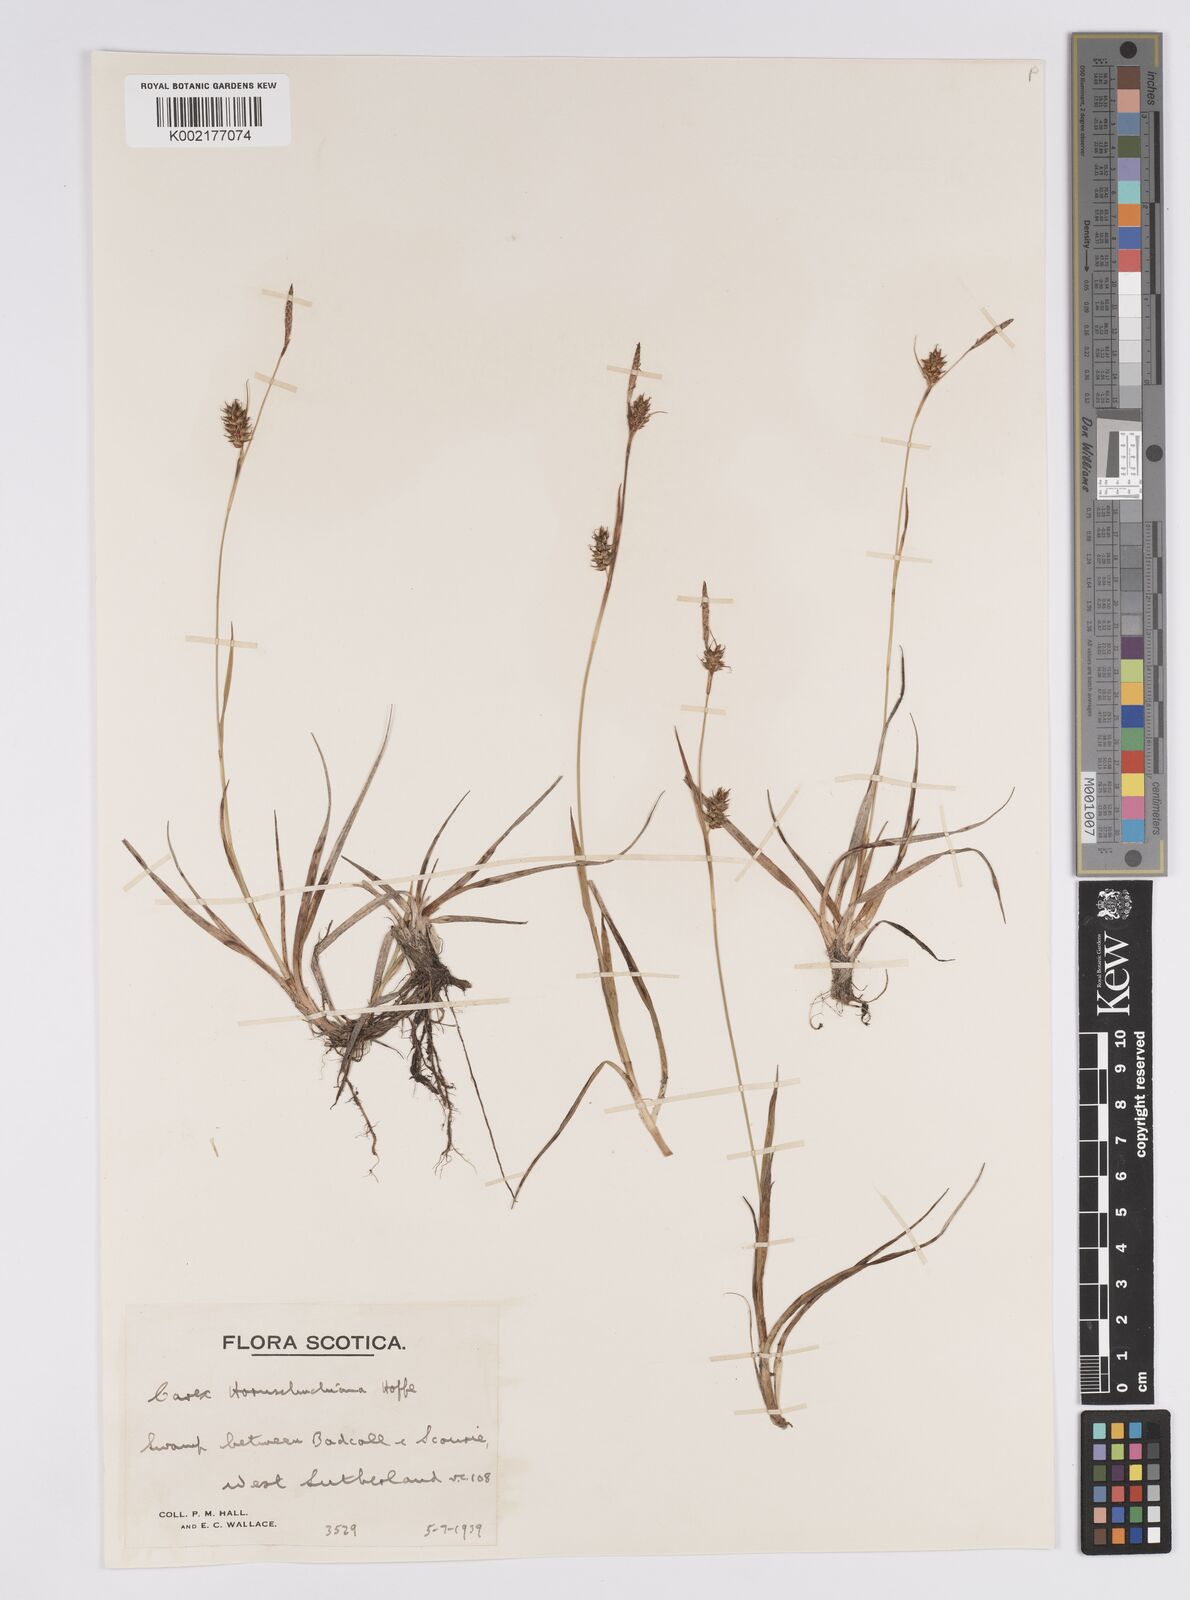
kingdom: Plantae
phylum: Tracheophyta
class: Liliopsida
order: Poales
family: Cyperaceae
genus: Carex
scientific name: Carex hostiana
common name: Tawny sedge
